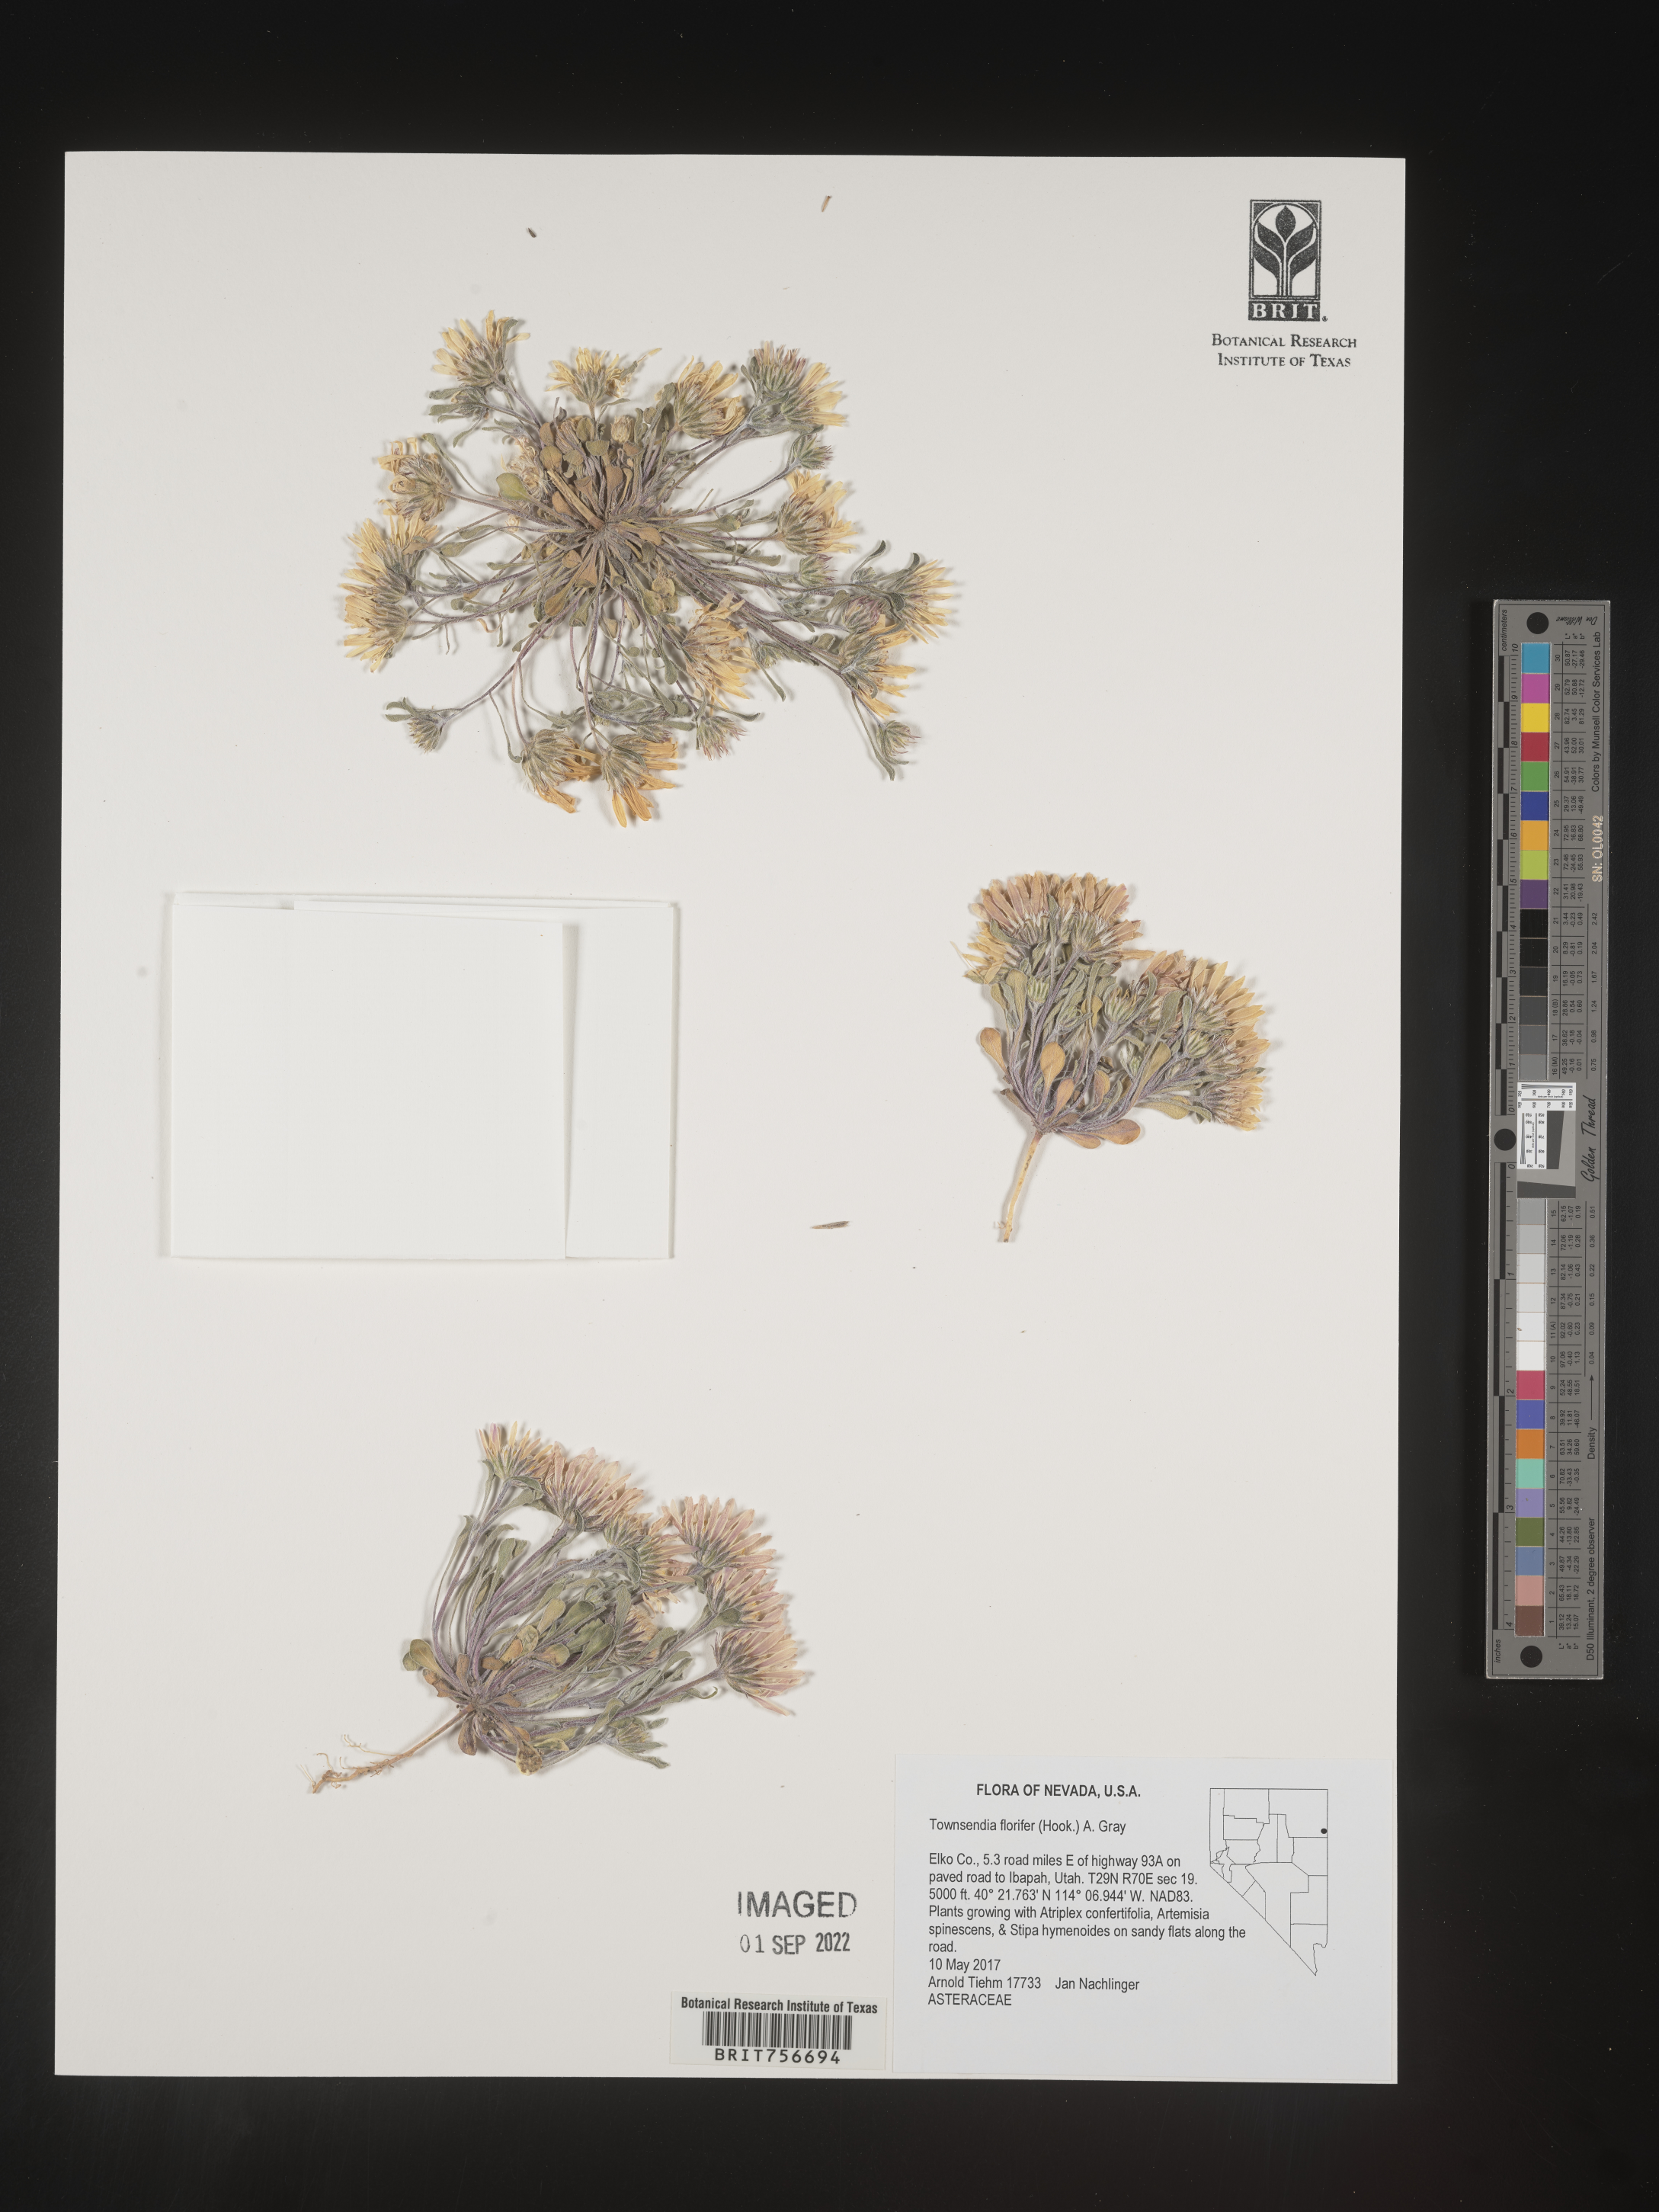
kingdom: Plantae
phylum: Tracheophyta
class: Magnoliopsida
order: Asterales
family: Asteraceae
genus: Townsendia
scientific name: Townsendia florifer
